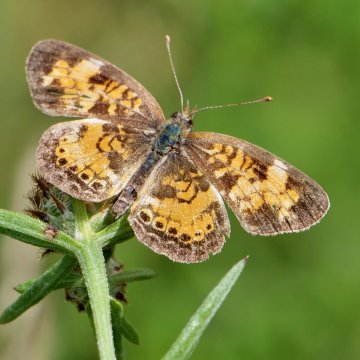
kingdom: Animalia
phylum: Arthropoda
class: Insecta
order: Lepidoptera
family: Nymphalidae
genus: Phyciodes
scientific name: Phyciodes
